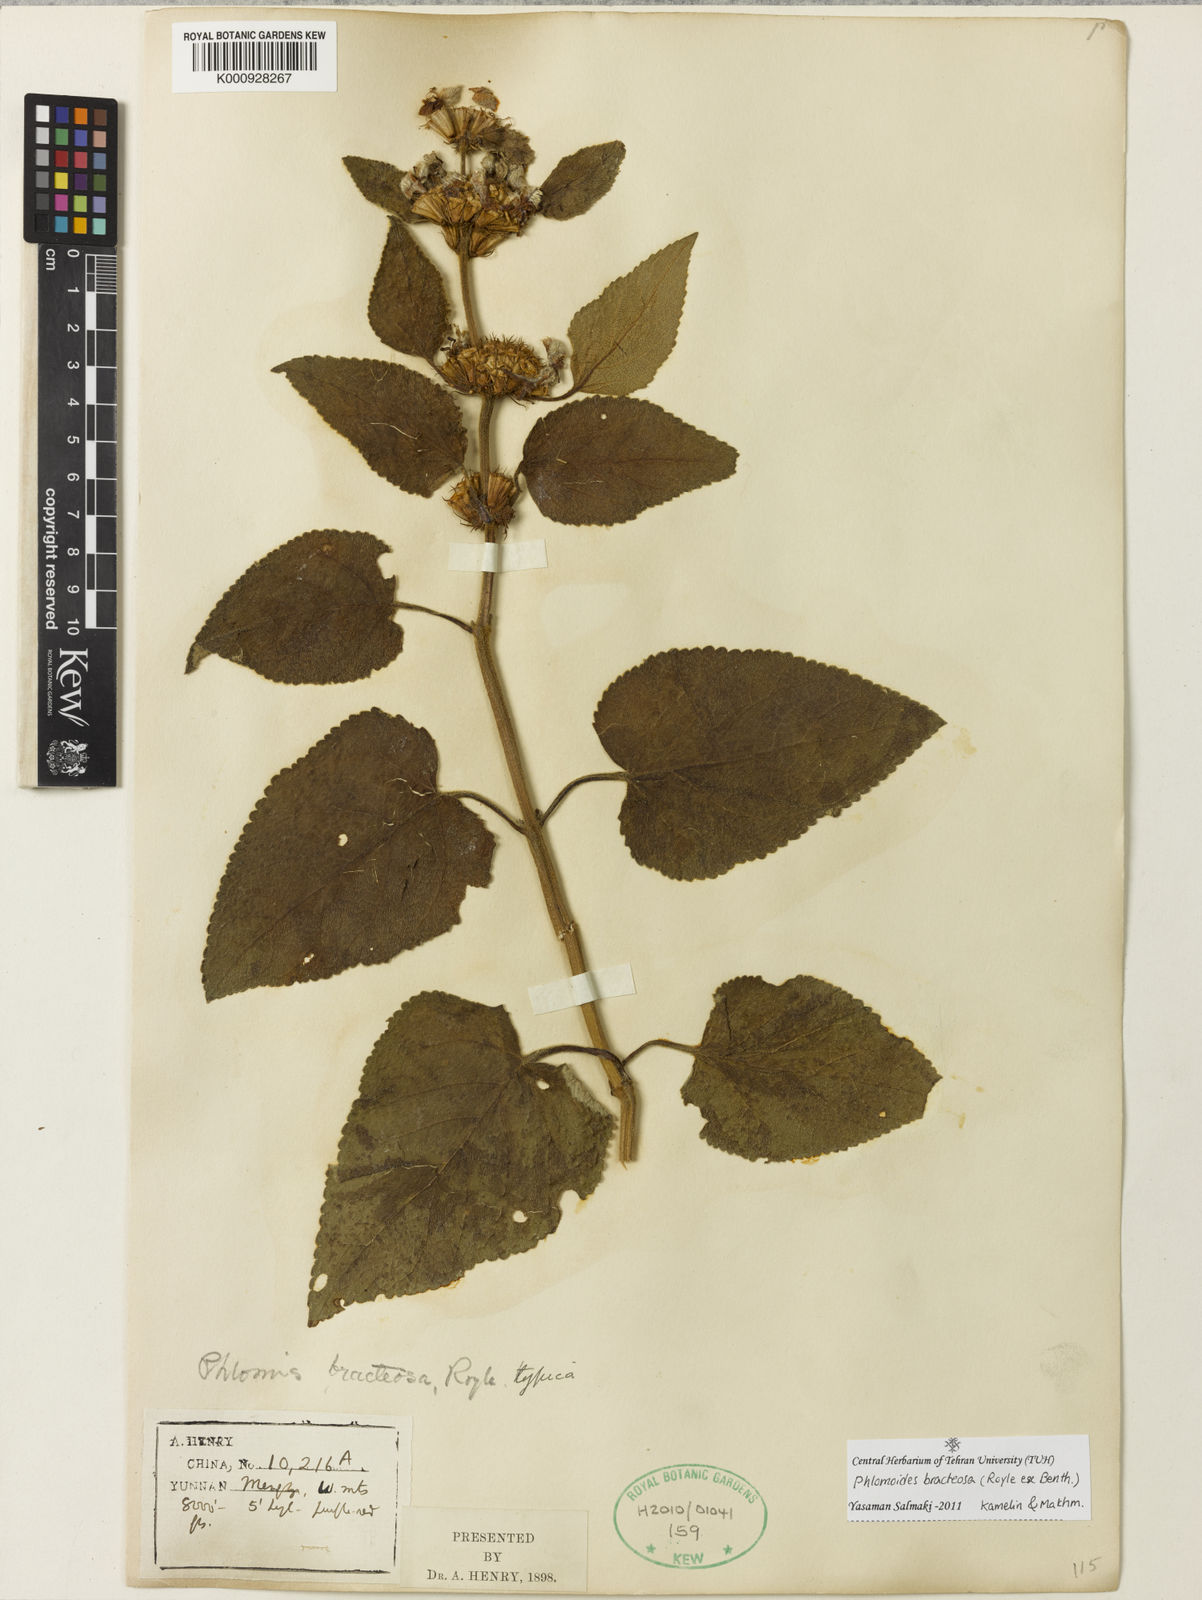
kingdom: Plantae
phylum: Tracheophyta
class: Magnoliopsida
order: Lamiales
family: Lamiaceae
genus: Phlomoides
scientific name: Phlomoides bracteosa
